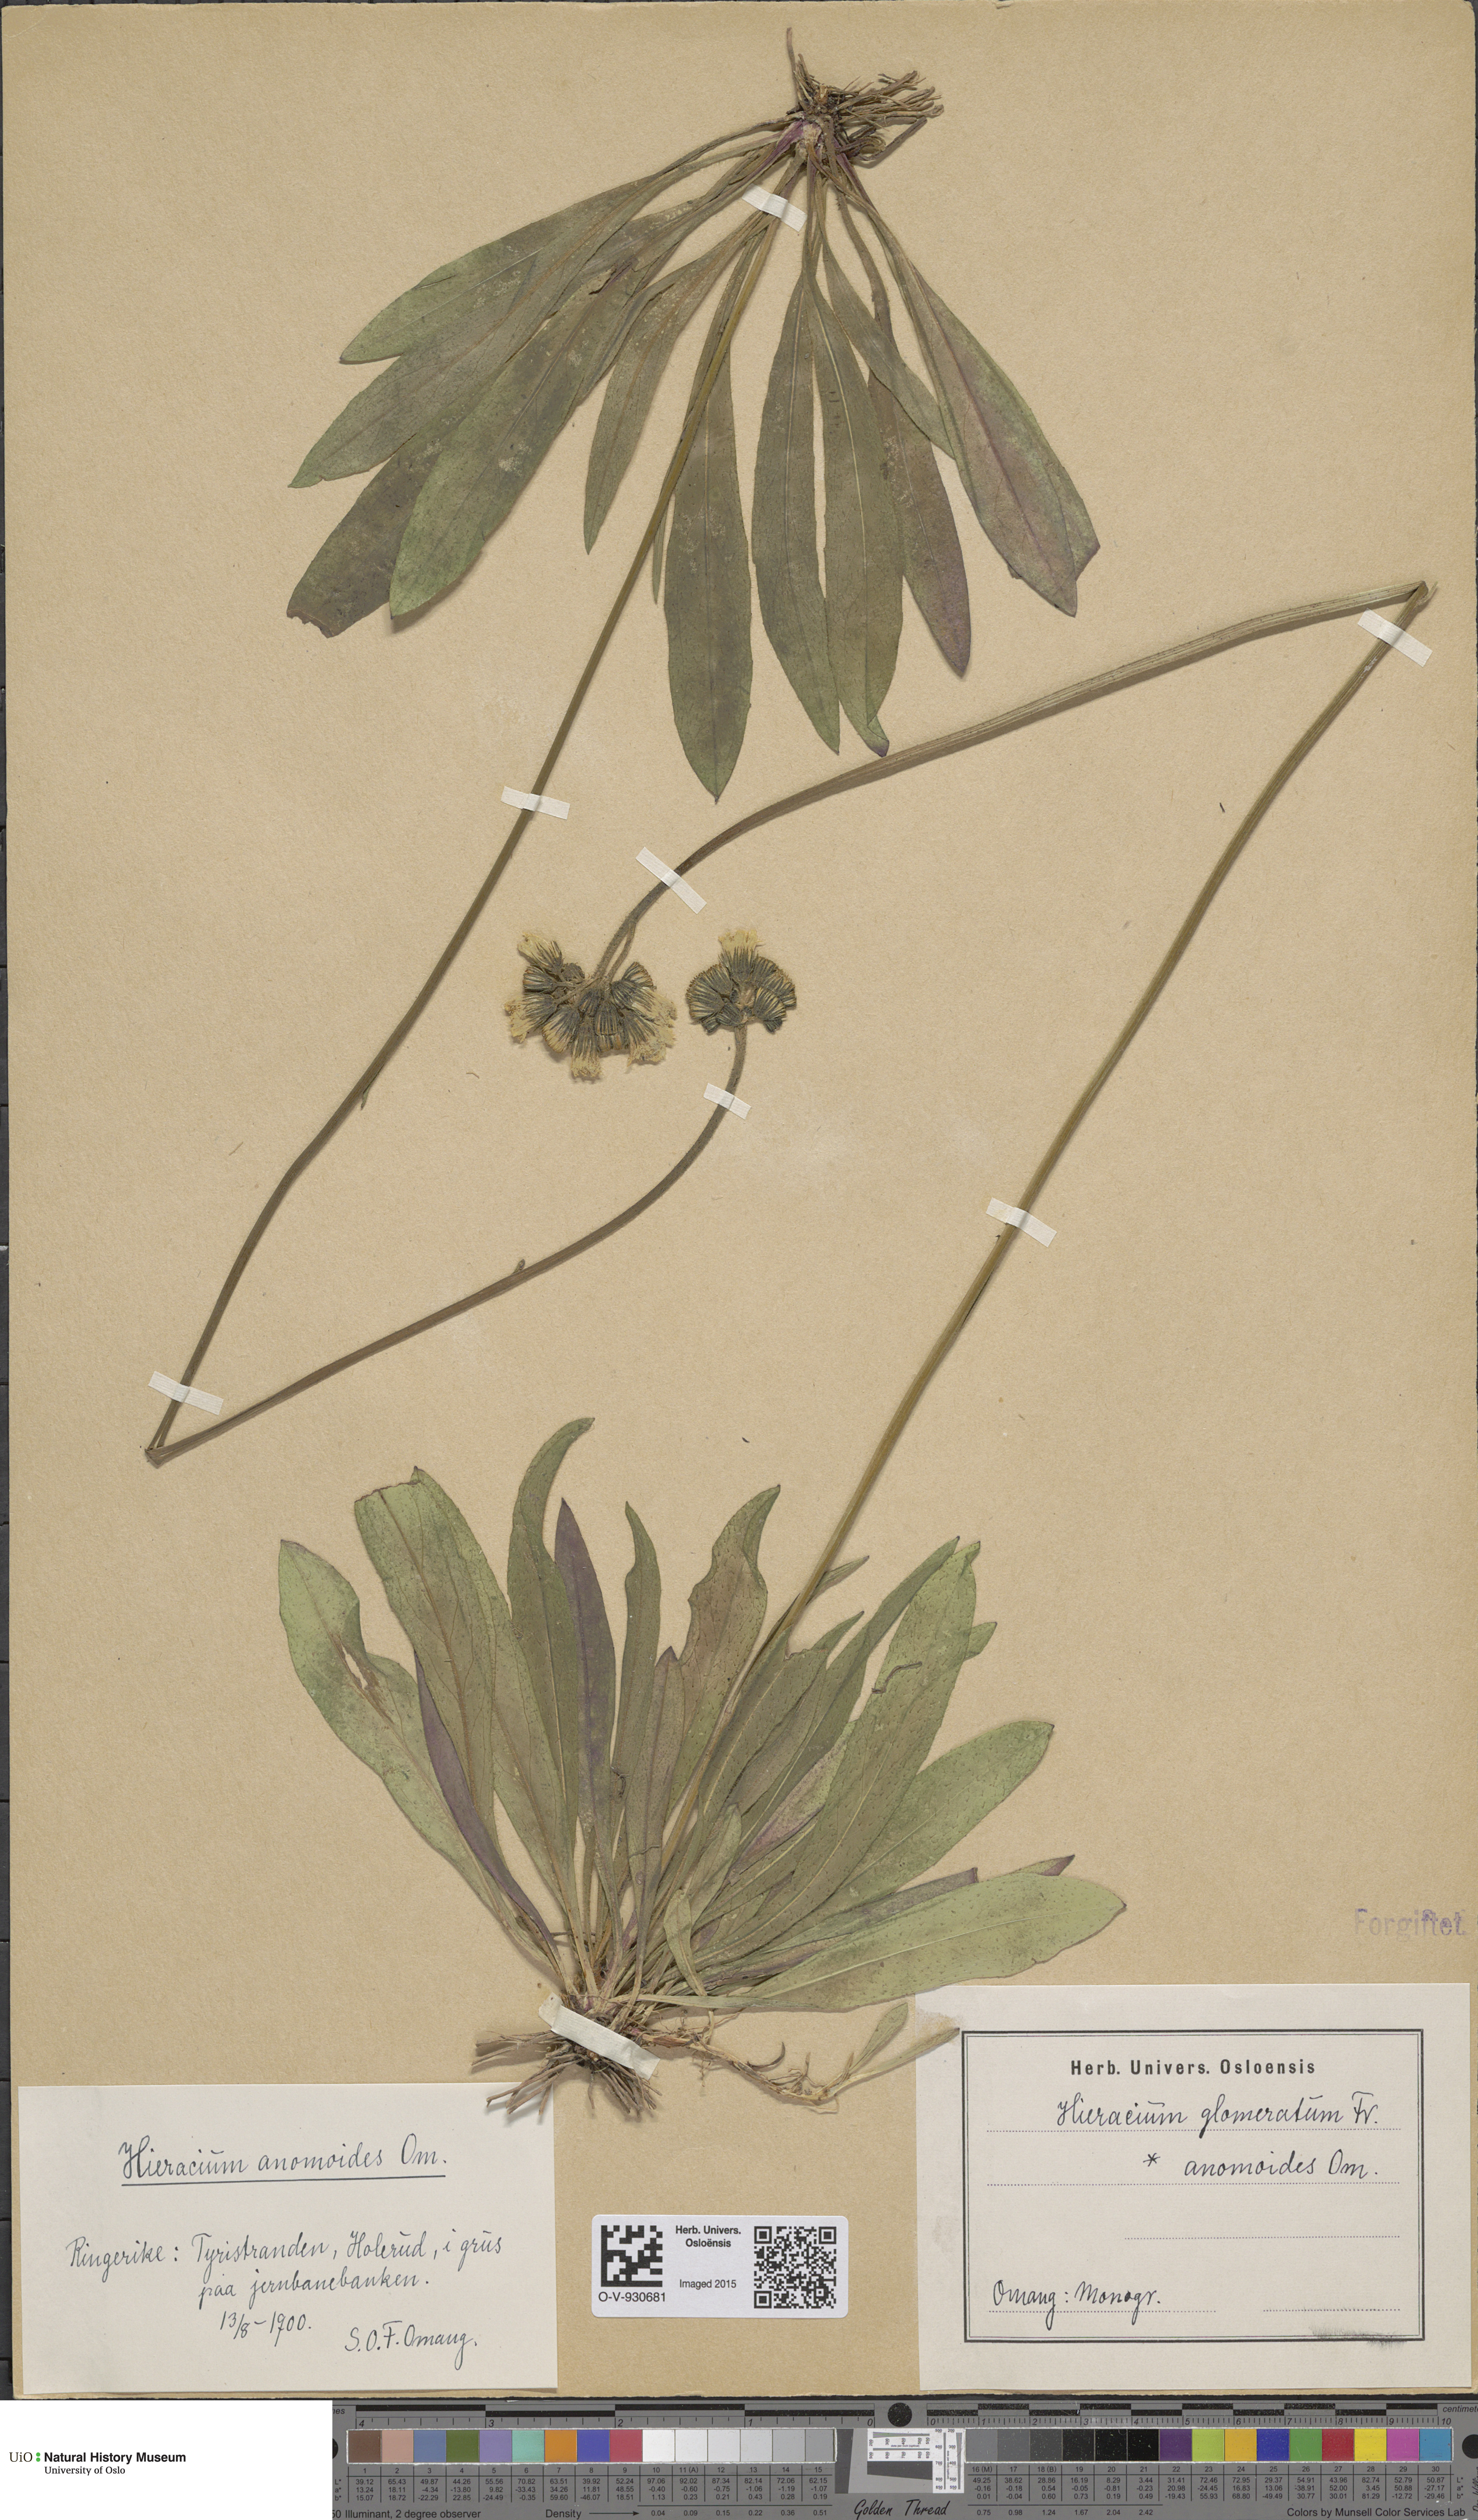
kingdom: Plantae
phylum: Tracheophyta
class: Magnoliopsida
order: Asterales
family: Asteraceae
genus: Pilosella
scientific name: Pilosella glomerata
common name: Queen devil hawkweed
